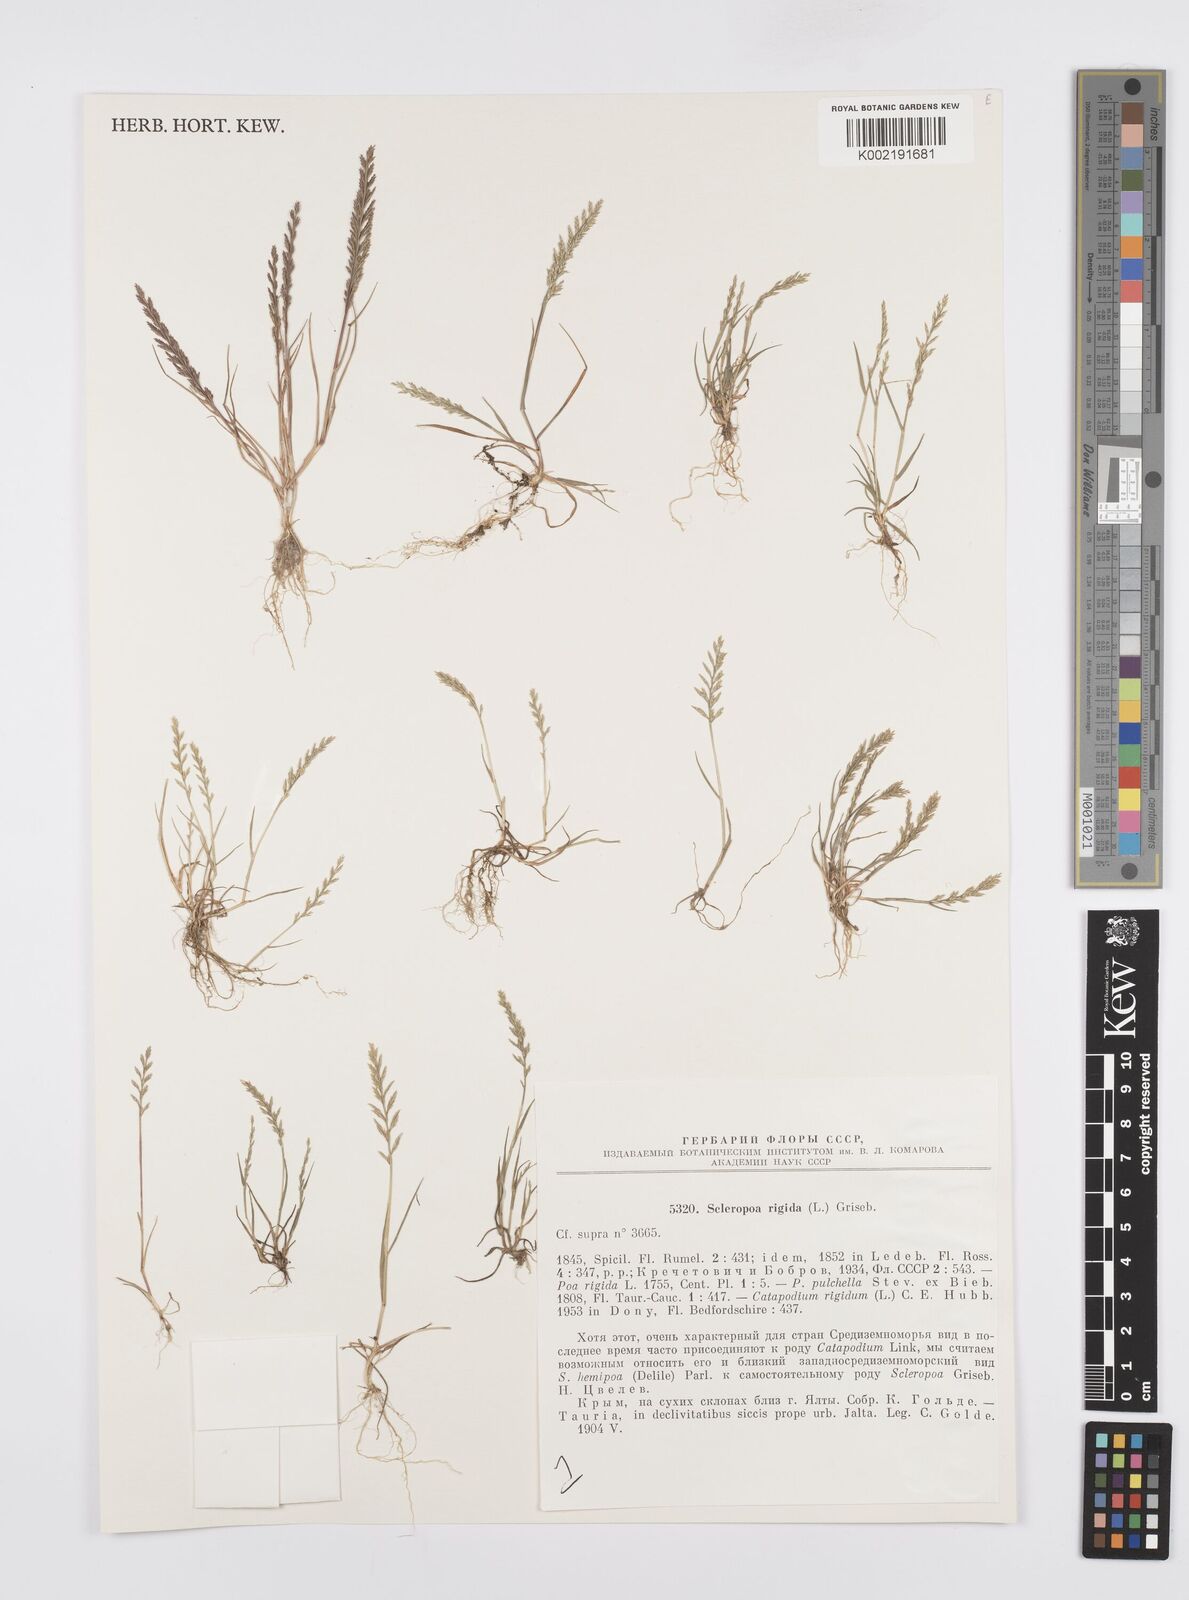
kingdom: Plantae
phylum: Tracheophyta
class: Liliopsida
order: Poales
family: Poaceae
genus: Catapodium
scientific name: Catapodium rigidum
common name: Fern-grass
